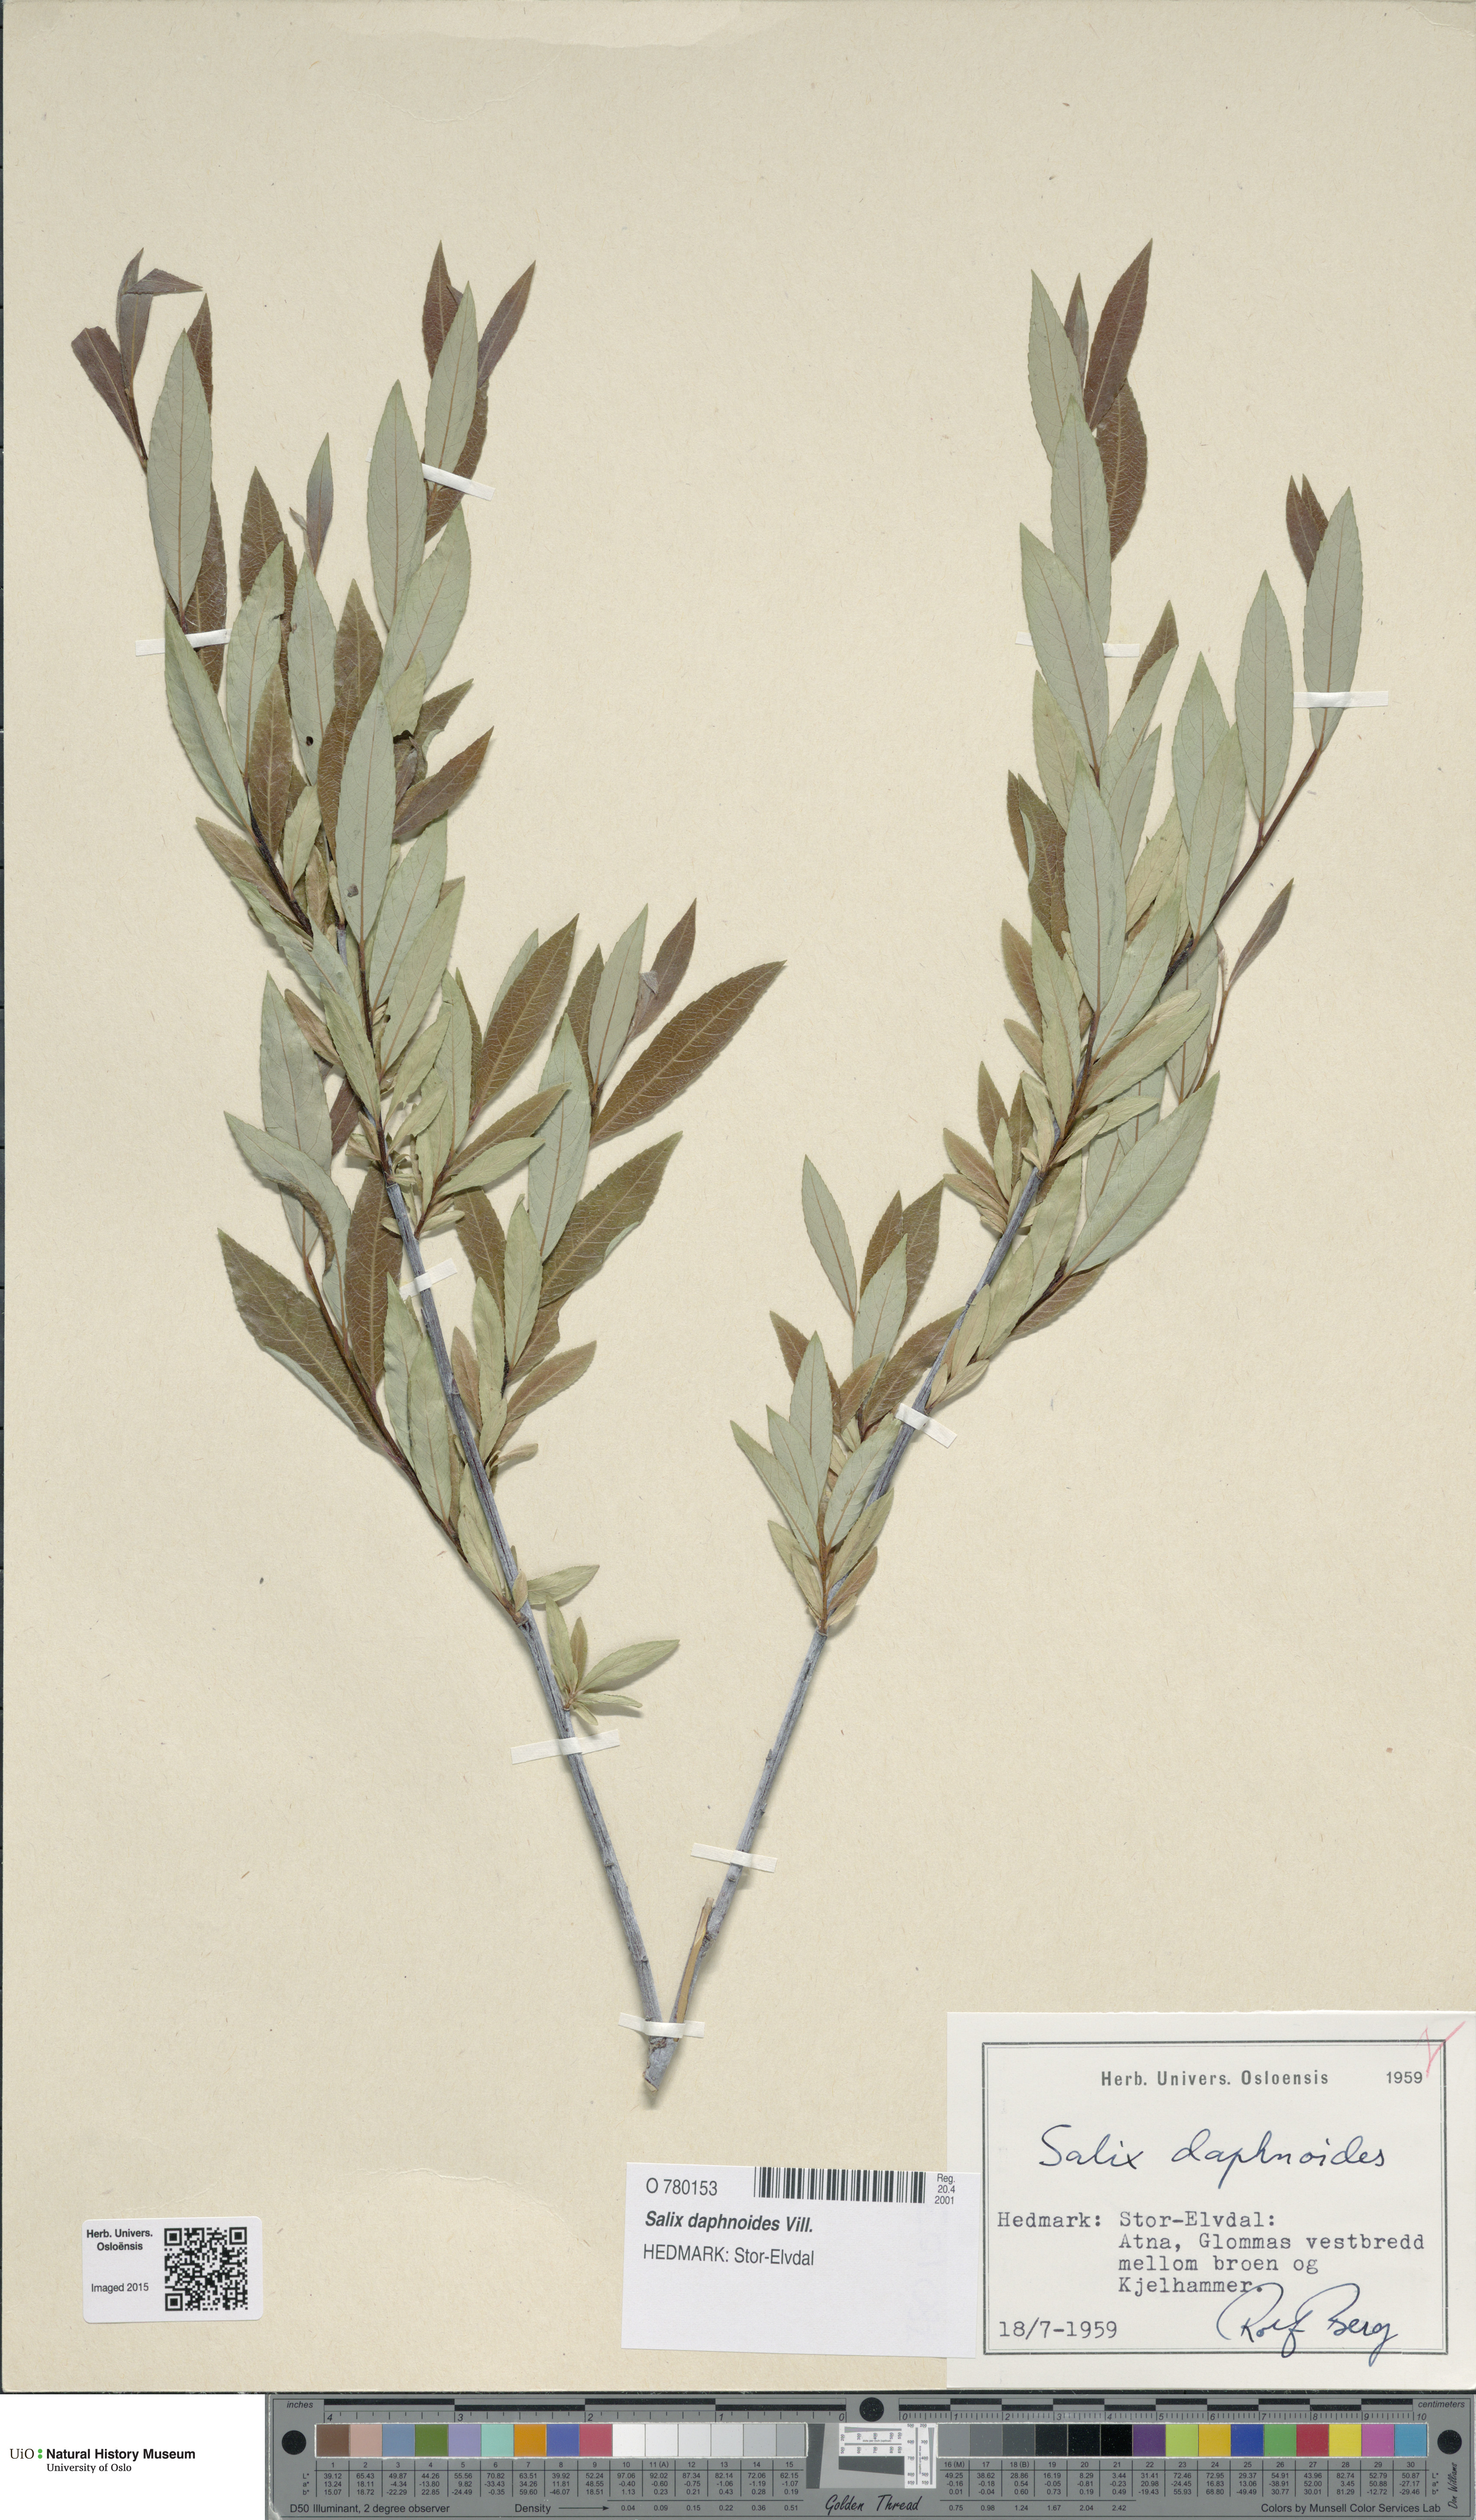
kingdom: Plantae
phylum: Tracheophyta
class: Magnoliopsida
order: Malpighiales
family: Salicaceae
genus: Salix
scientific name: Salix daphnoides
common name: European violet-willow
